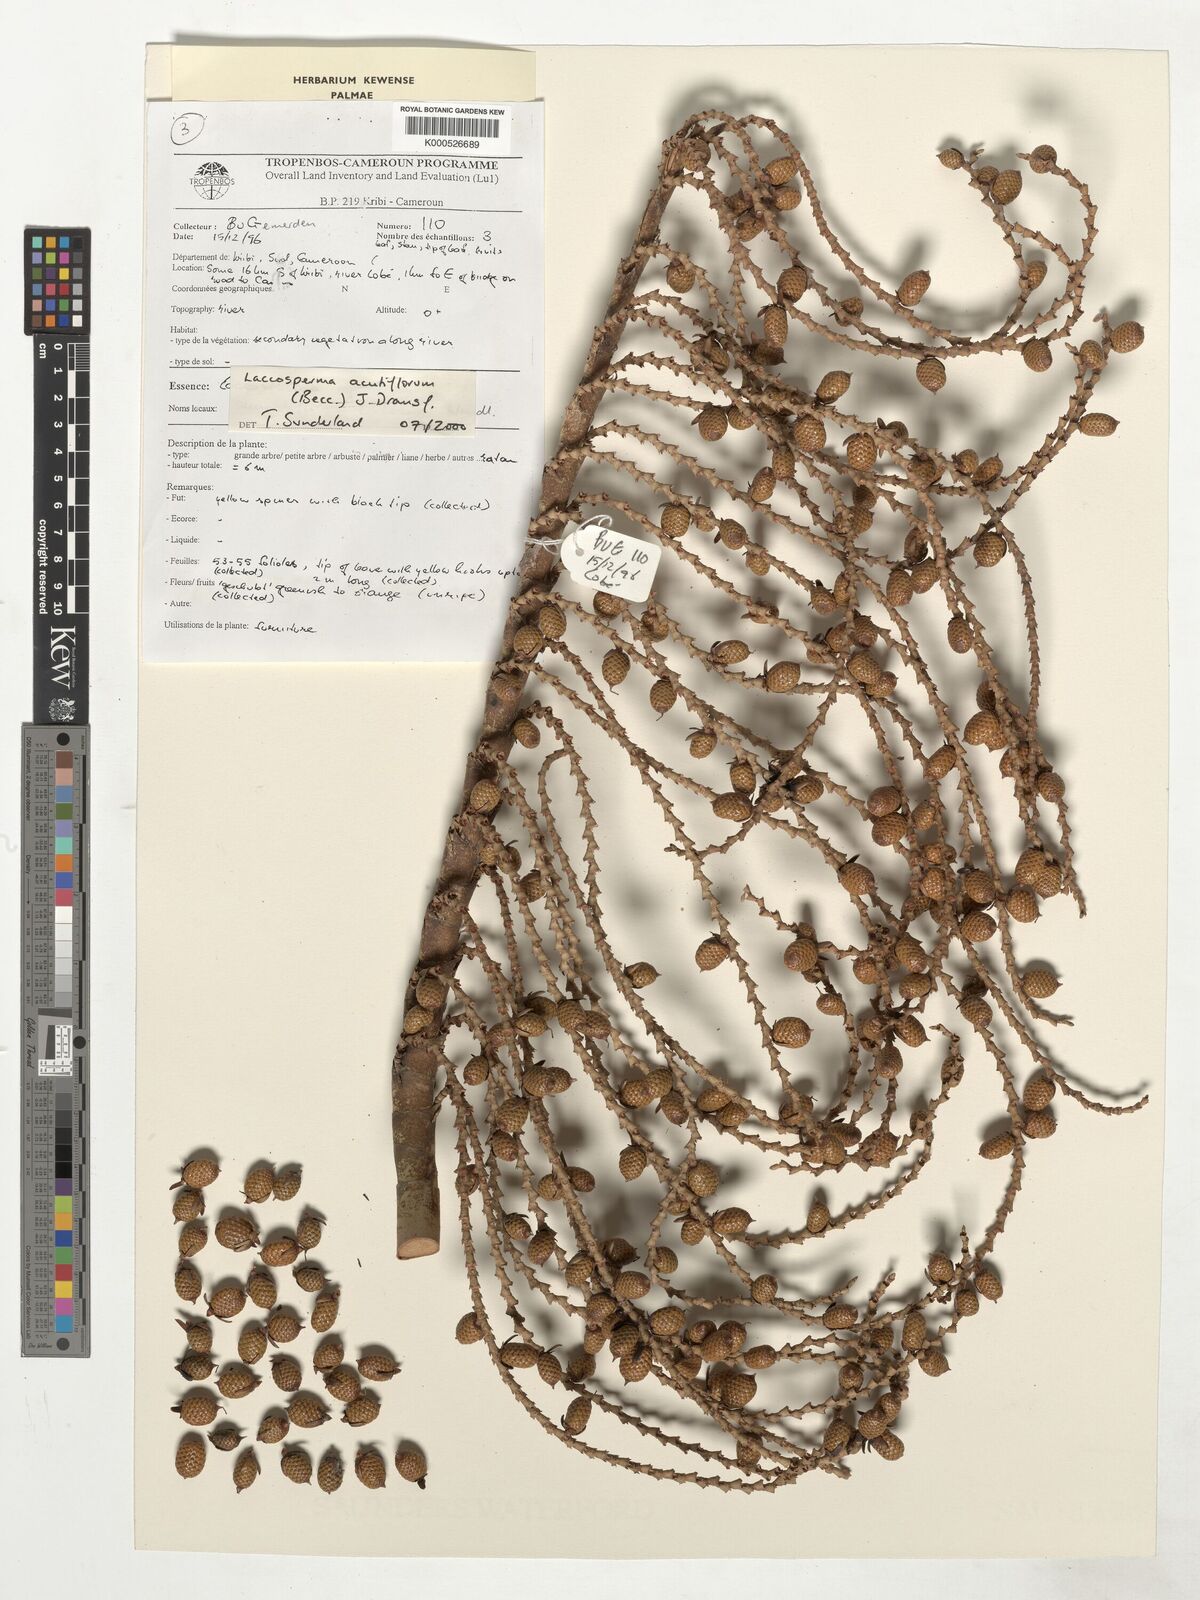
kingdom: Plantae
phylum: Tracheophyta
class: Liliopsida
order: Arecales
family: Arecaceae
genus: Laccosperma
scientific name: Laccosperma acutiflorum
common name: Rattan
